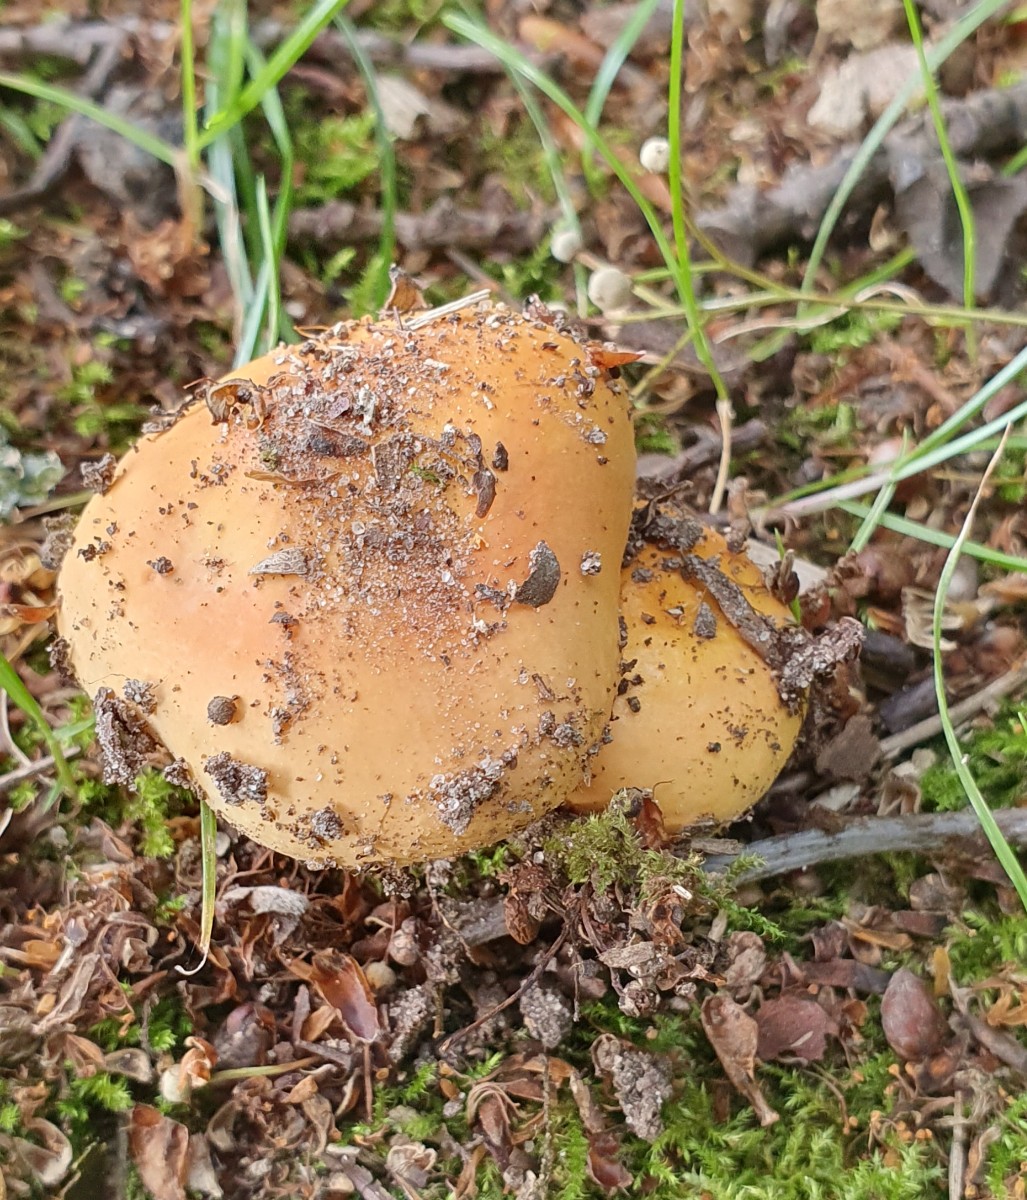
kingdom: Fungi
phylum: Basidiomycota
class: Agaricomycetes
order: Russulales
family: Russulaceae
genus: Russula
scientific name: Russula risigallina
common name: abrikos-skørhat
